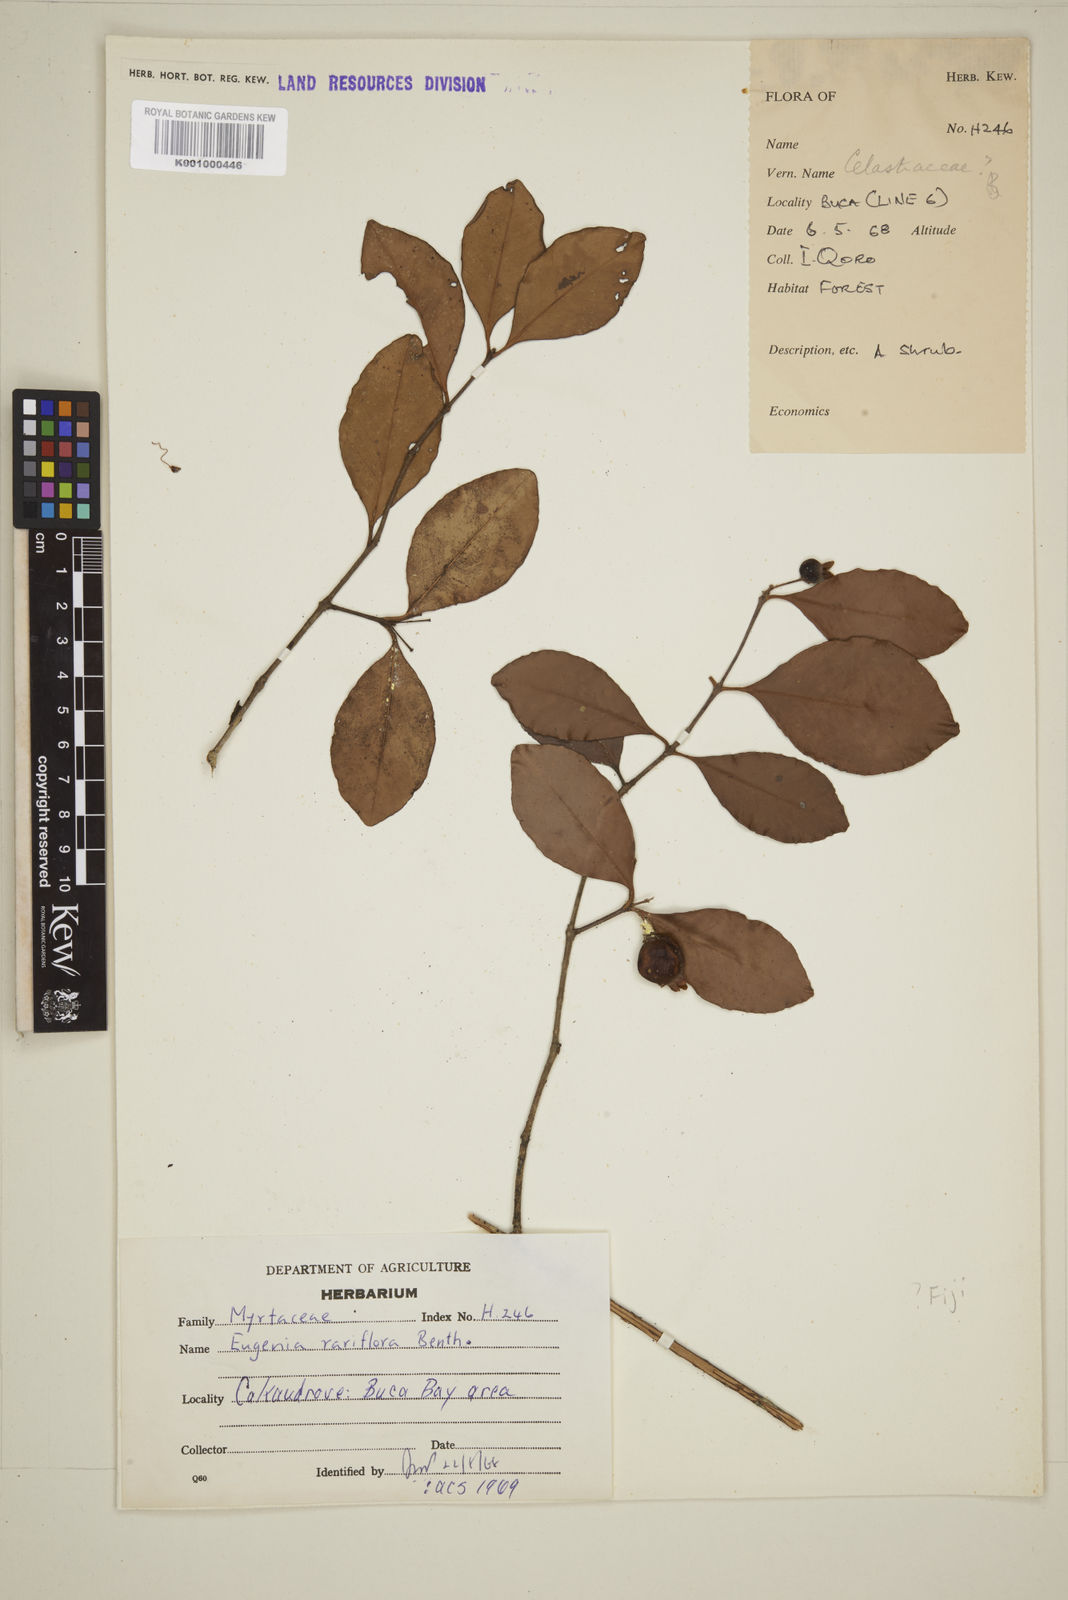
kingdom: Plantae
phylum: Tracheophyta
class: Magnoliopsida
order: Myrtales
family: Myrtaceae
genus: Eugenia
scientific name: Eugenia reinwardtiana
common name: Cedar bay-cherry
